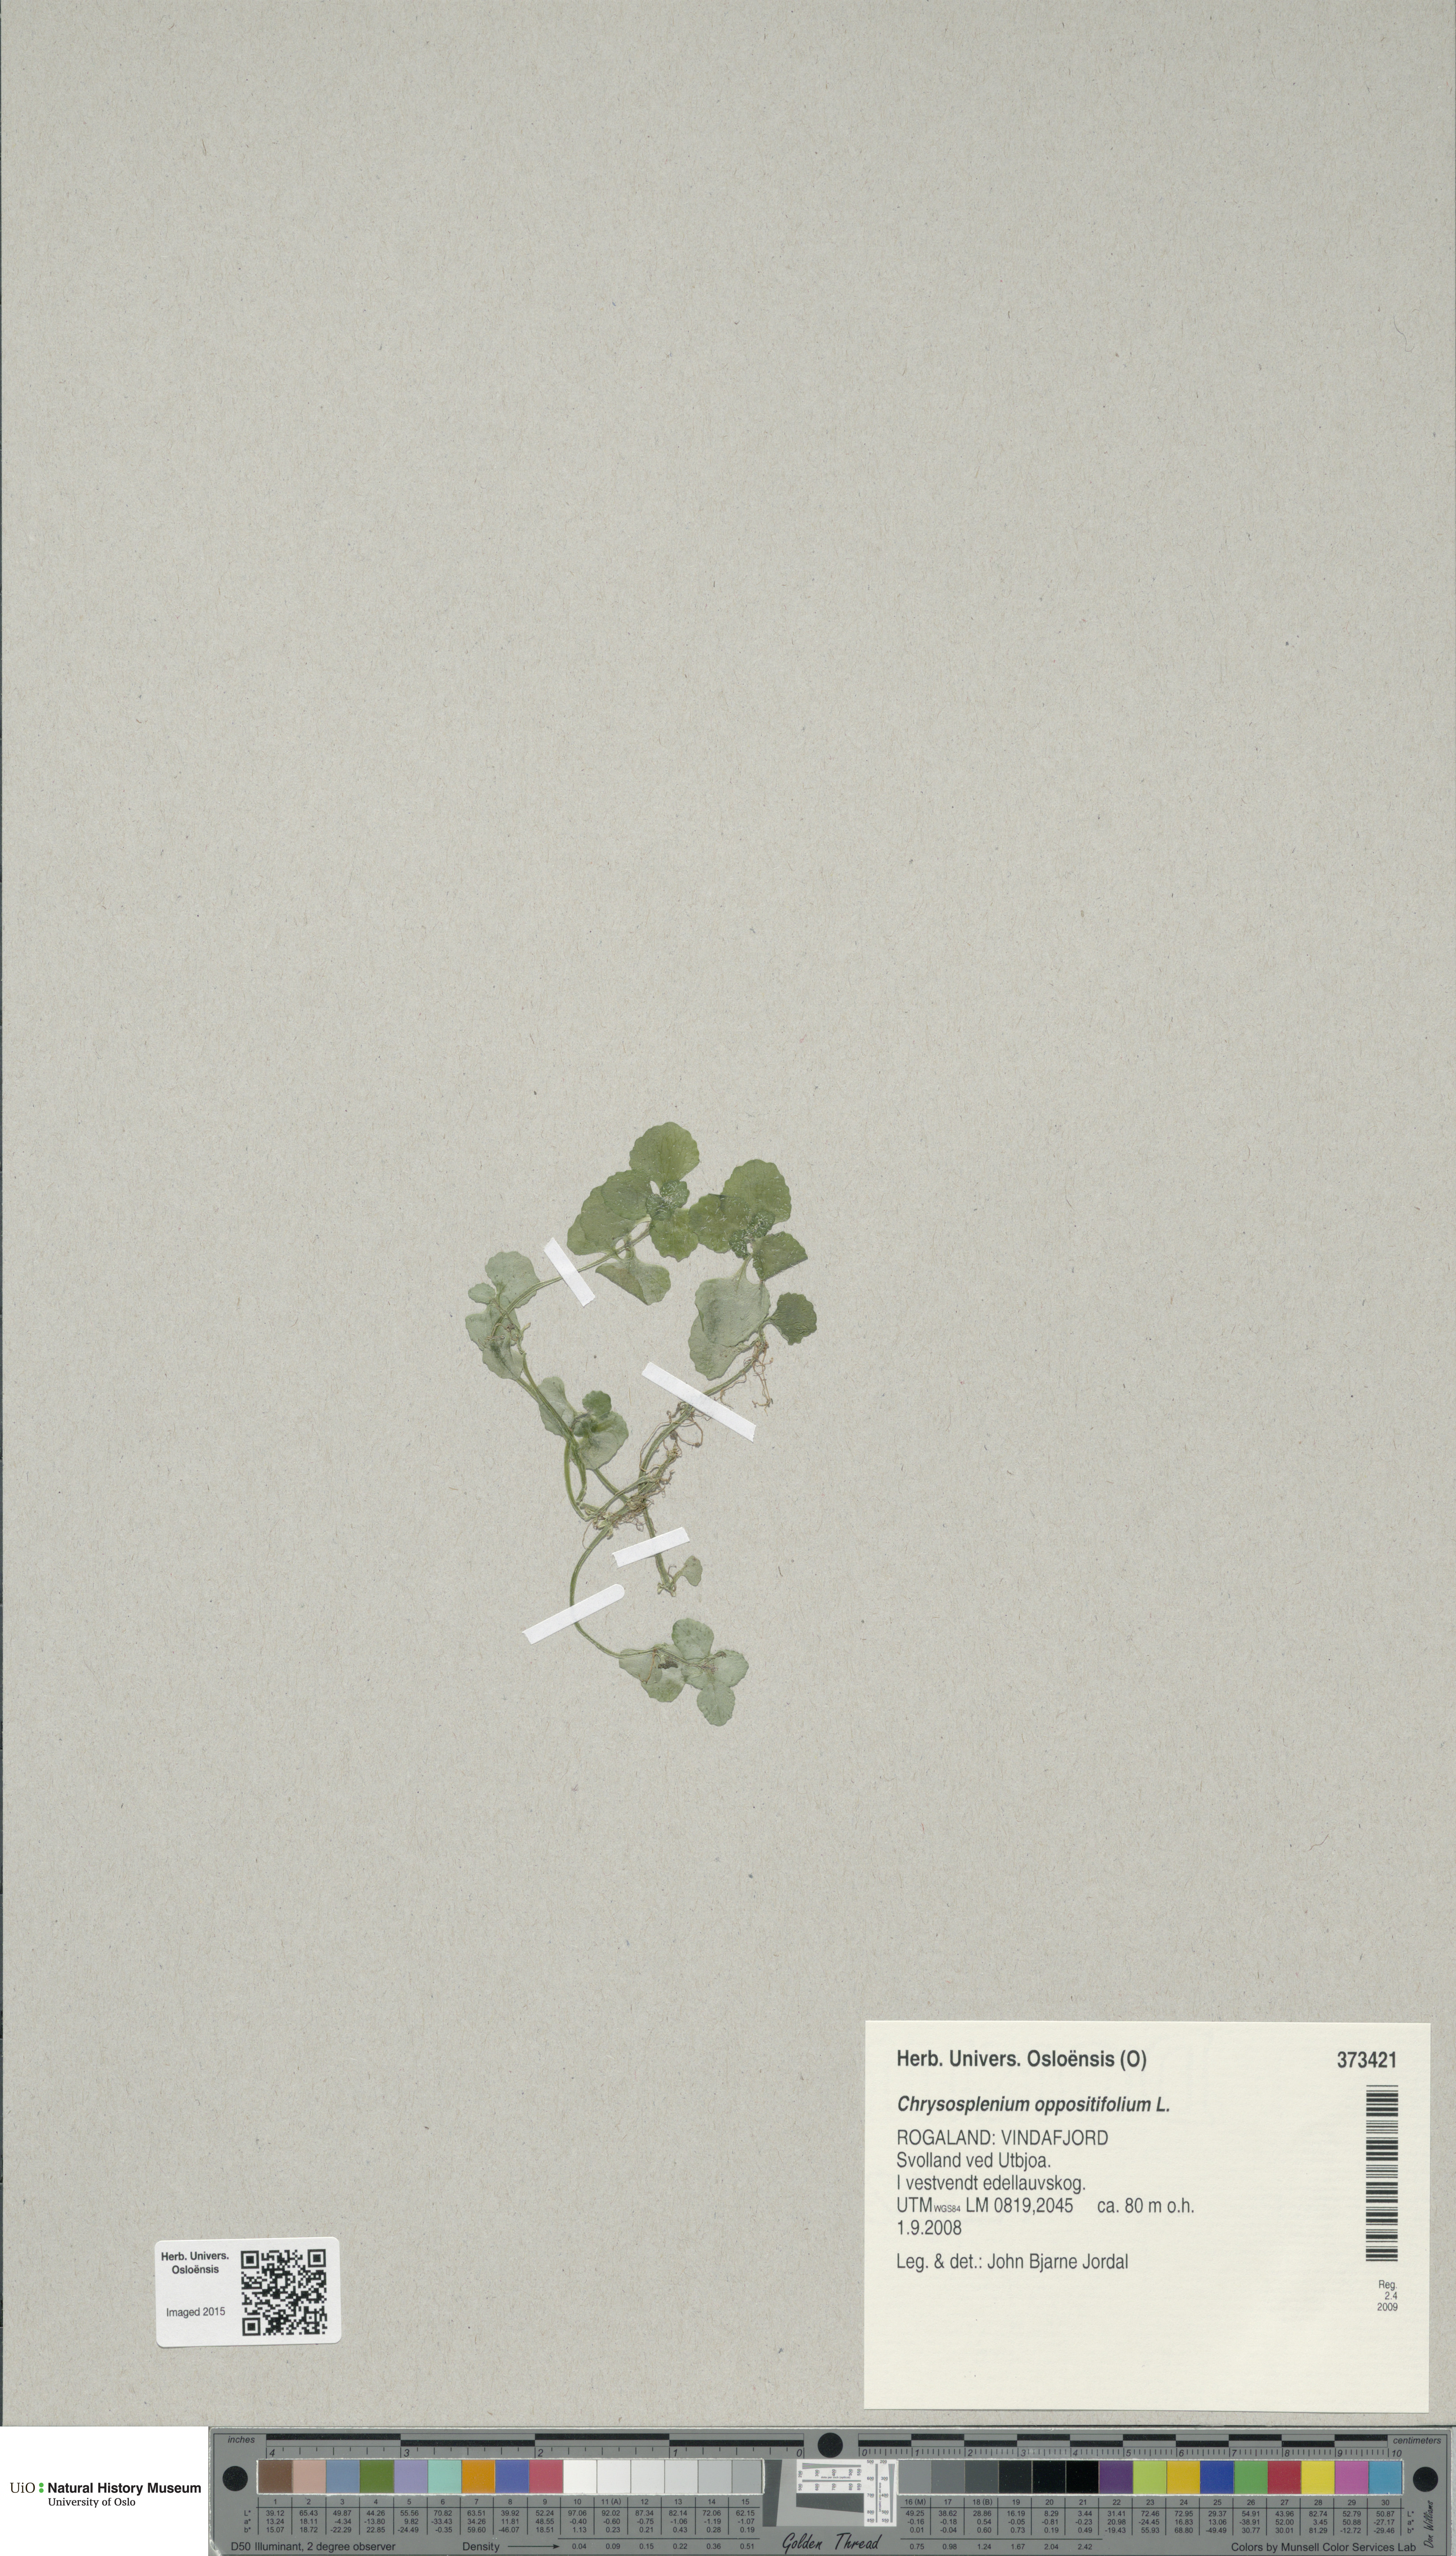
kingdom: Plantae
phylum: Tracheophyta
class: Magnoliopsida
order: Saxifragales
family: Saxifragaceae
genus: Chrysosplenium
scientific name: Chrysosplenium oppositifolium
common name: Opposite-leaved golden-saxifrage
